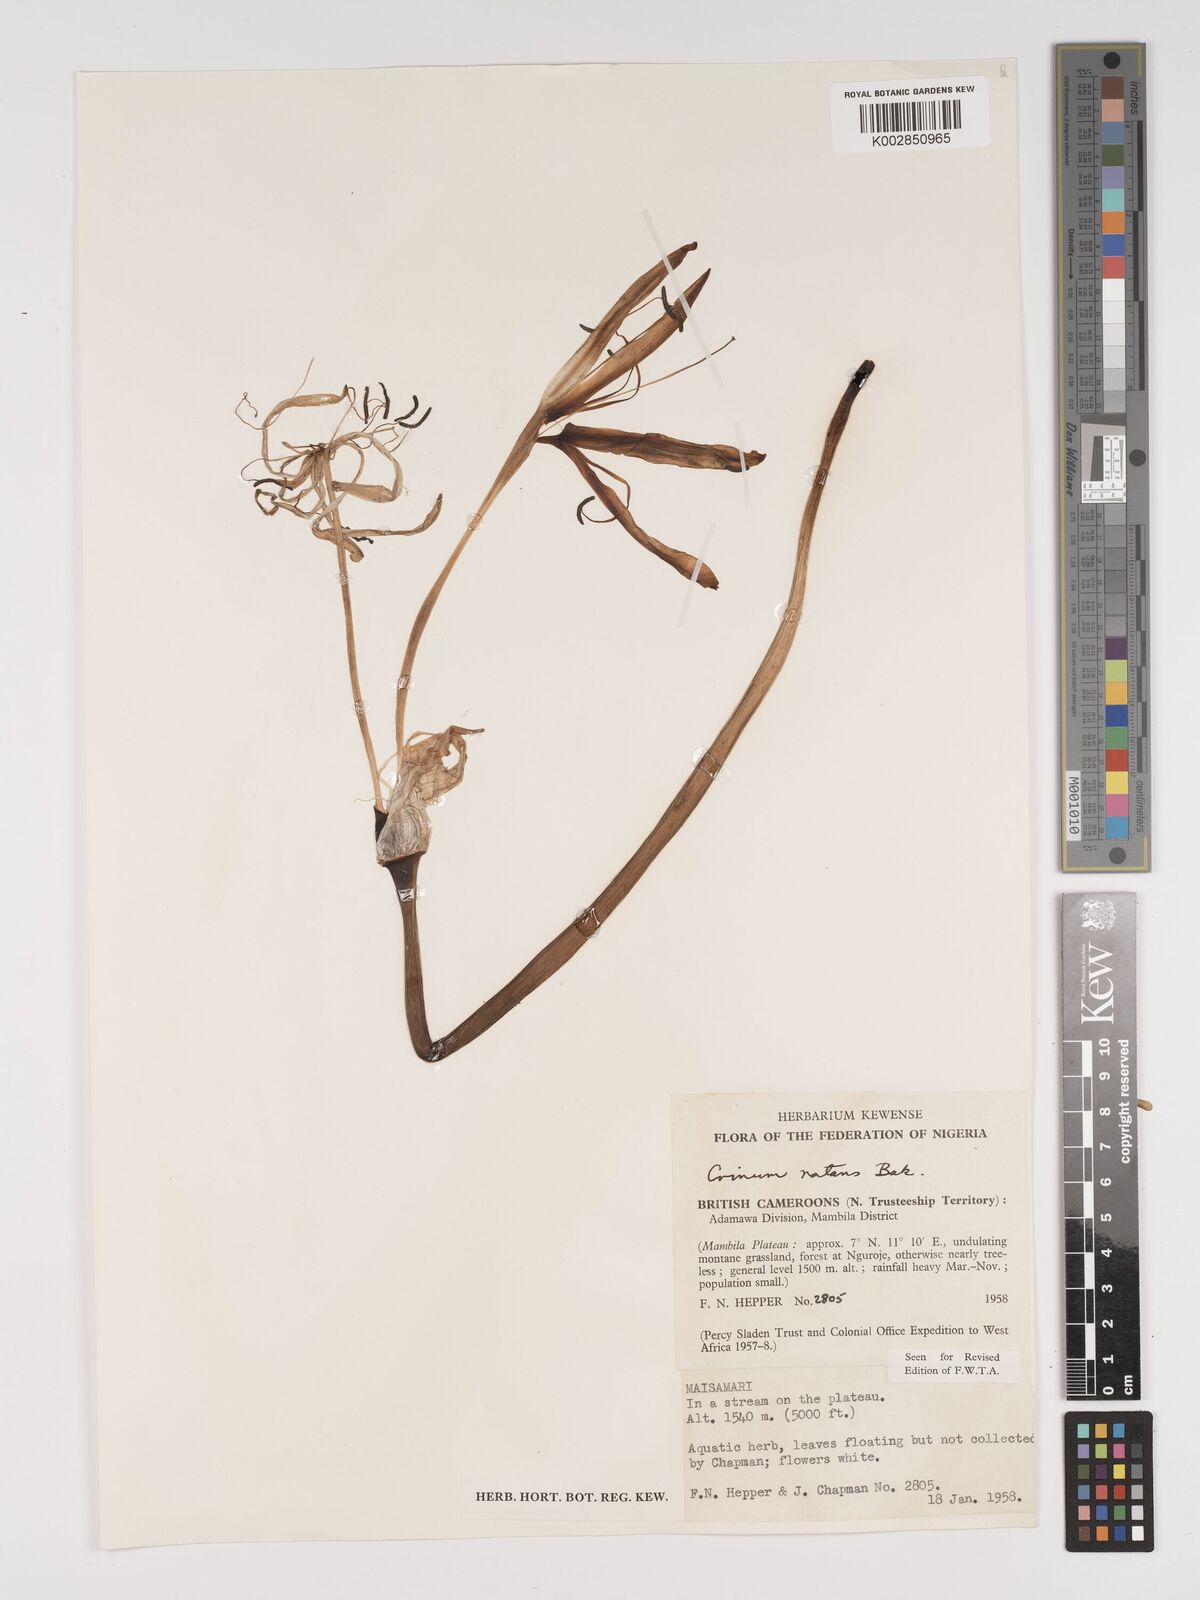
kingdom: Plantae
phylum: Tracheophyta
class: Liliopsida
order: Asparagales
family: Amaryllidaceae
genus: Crinum
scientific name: Crinum natans
